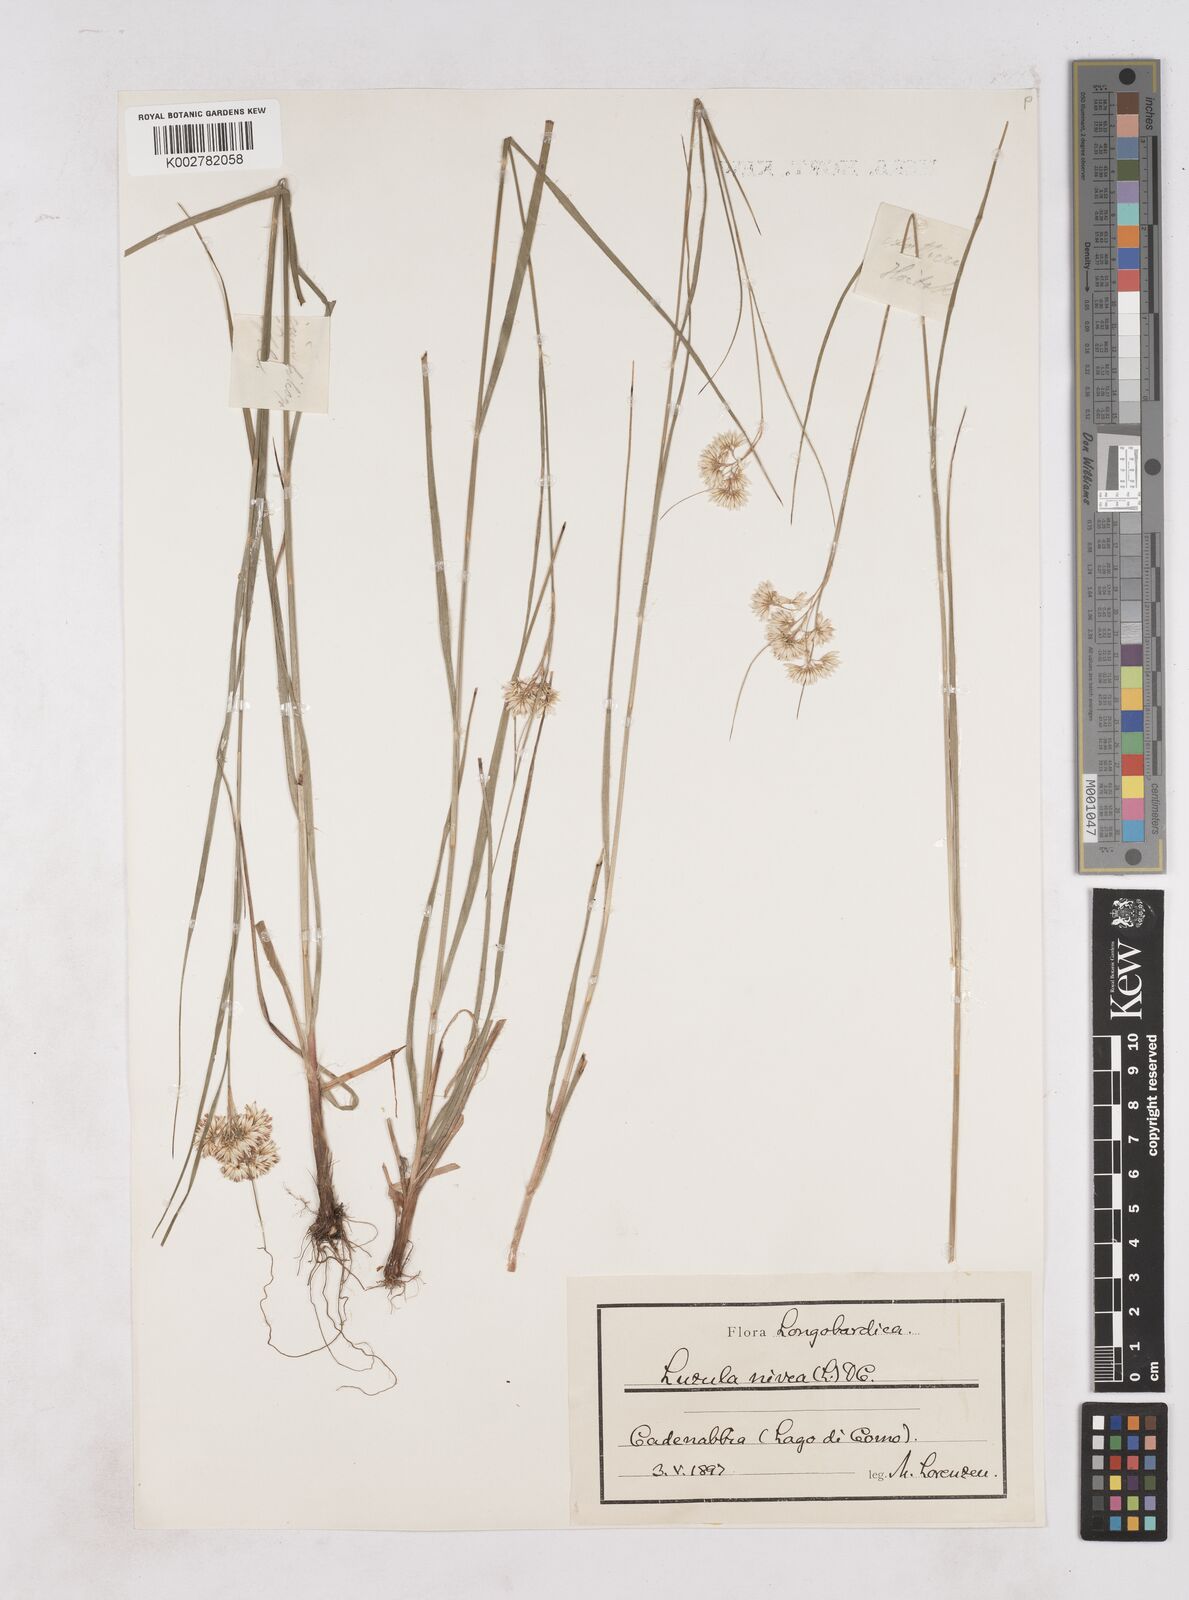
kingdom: Plantae
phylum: Tracheophyta
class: Liliopsida
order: Poales
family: Juncaceae
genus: Luzula
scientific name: Luzula nivea
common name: Snow-white wood-rush
